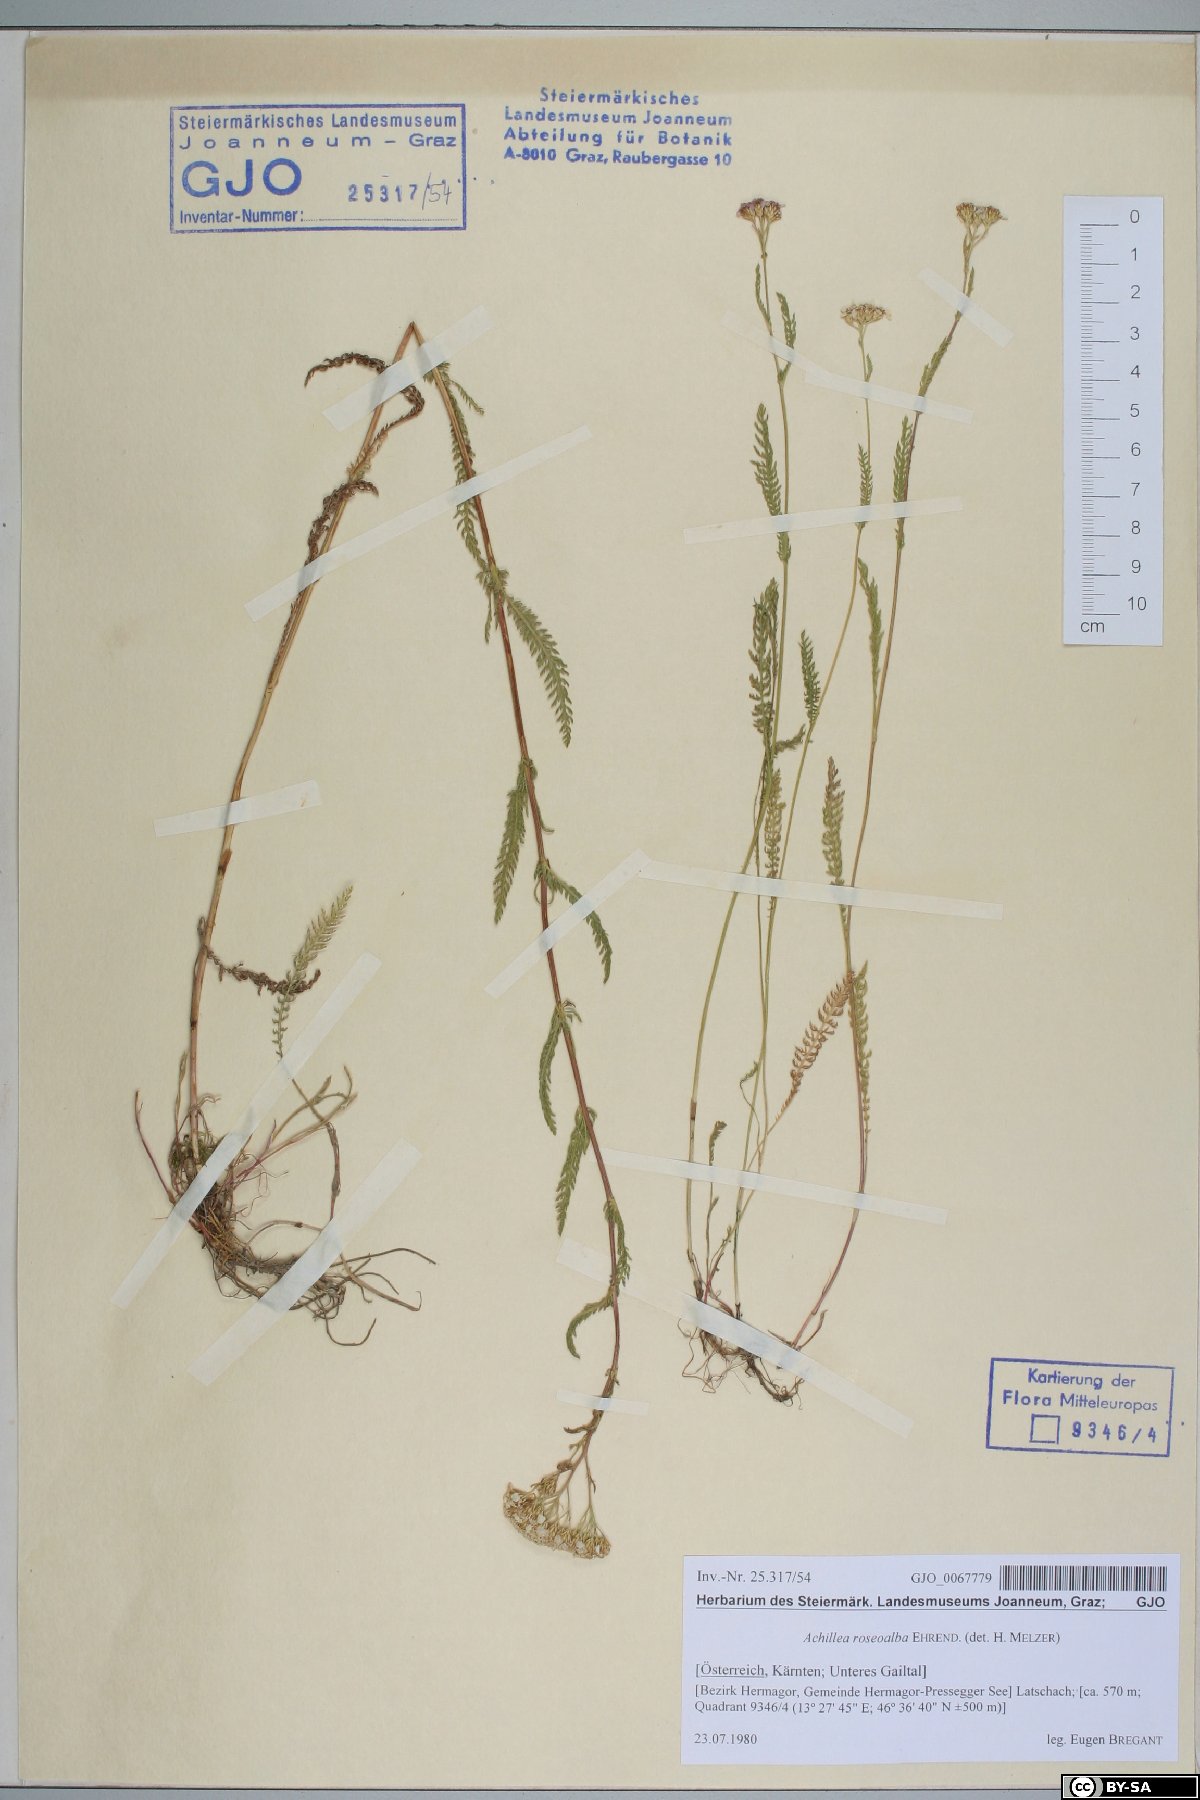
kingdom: Plantae
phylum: Tracheophyta
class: Magnoliopsida
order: Asterales
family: Asteraceae
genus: Achillea
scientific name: Achillea roseoalba
